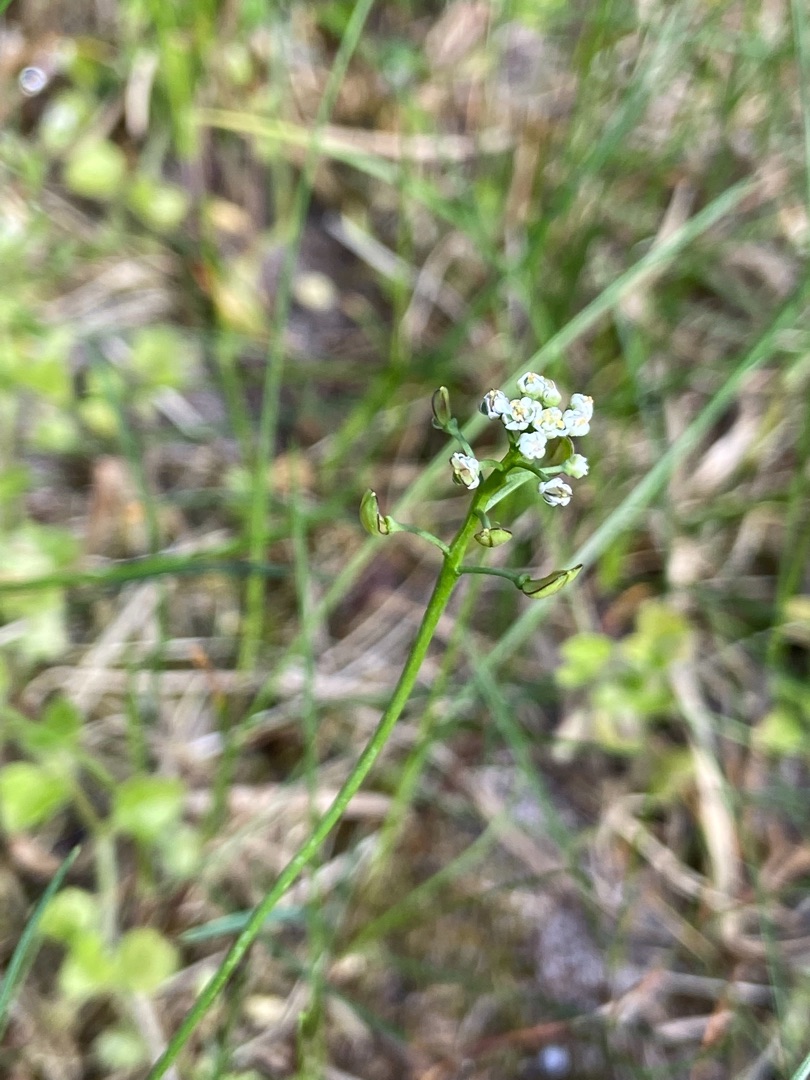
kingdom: Plantae
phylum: Tracheophyta
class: Magnoliopsida
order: Brassicales
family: Brassicaceae
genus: Teesdalia
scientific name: Teesdalia nudicaulis
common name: Flipkrave
